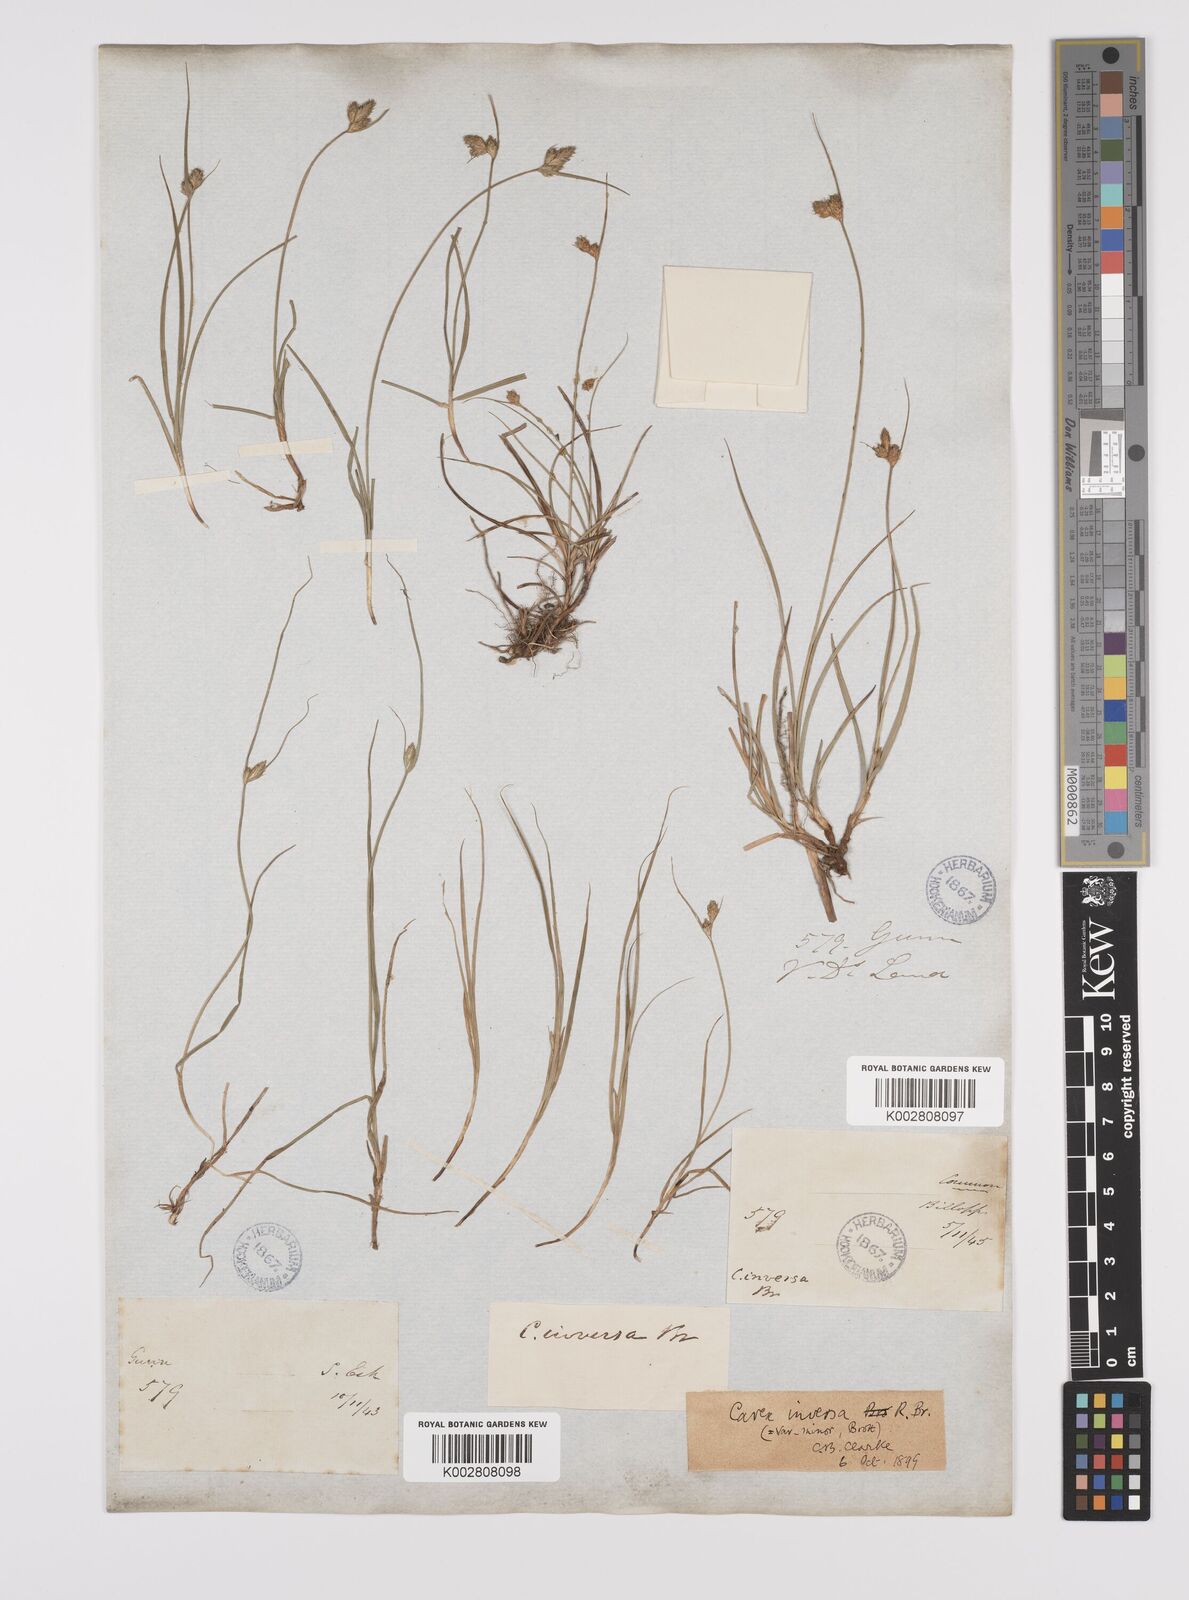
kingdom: Plantae
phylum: Tracheophyta
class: Liliopsida
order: Poales
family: Cyperaceae
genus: Carex
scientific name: Carex inversa
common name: Knob sedge
